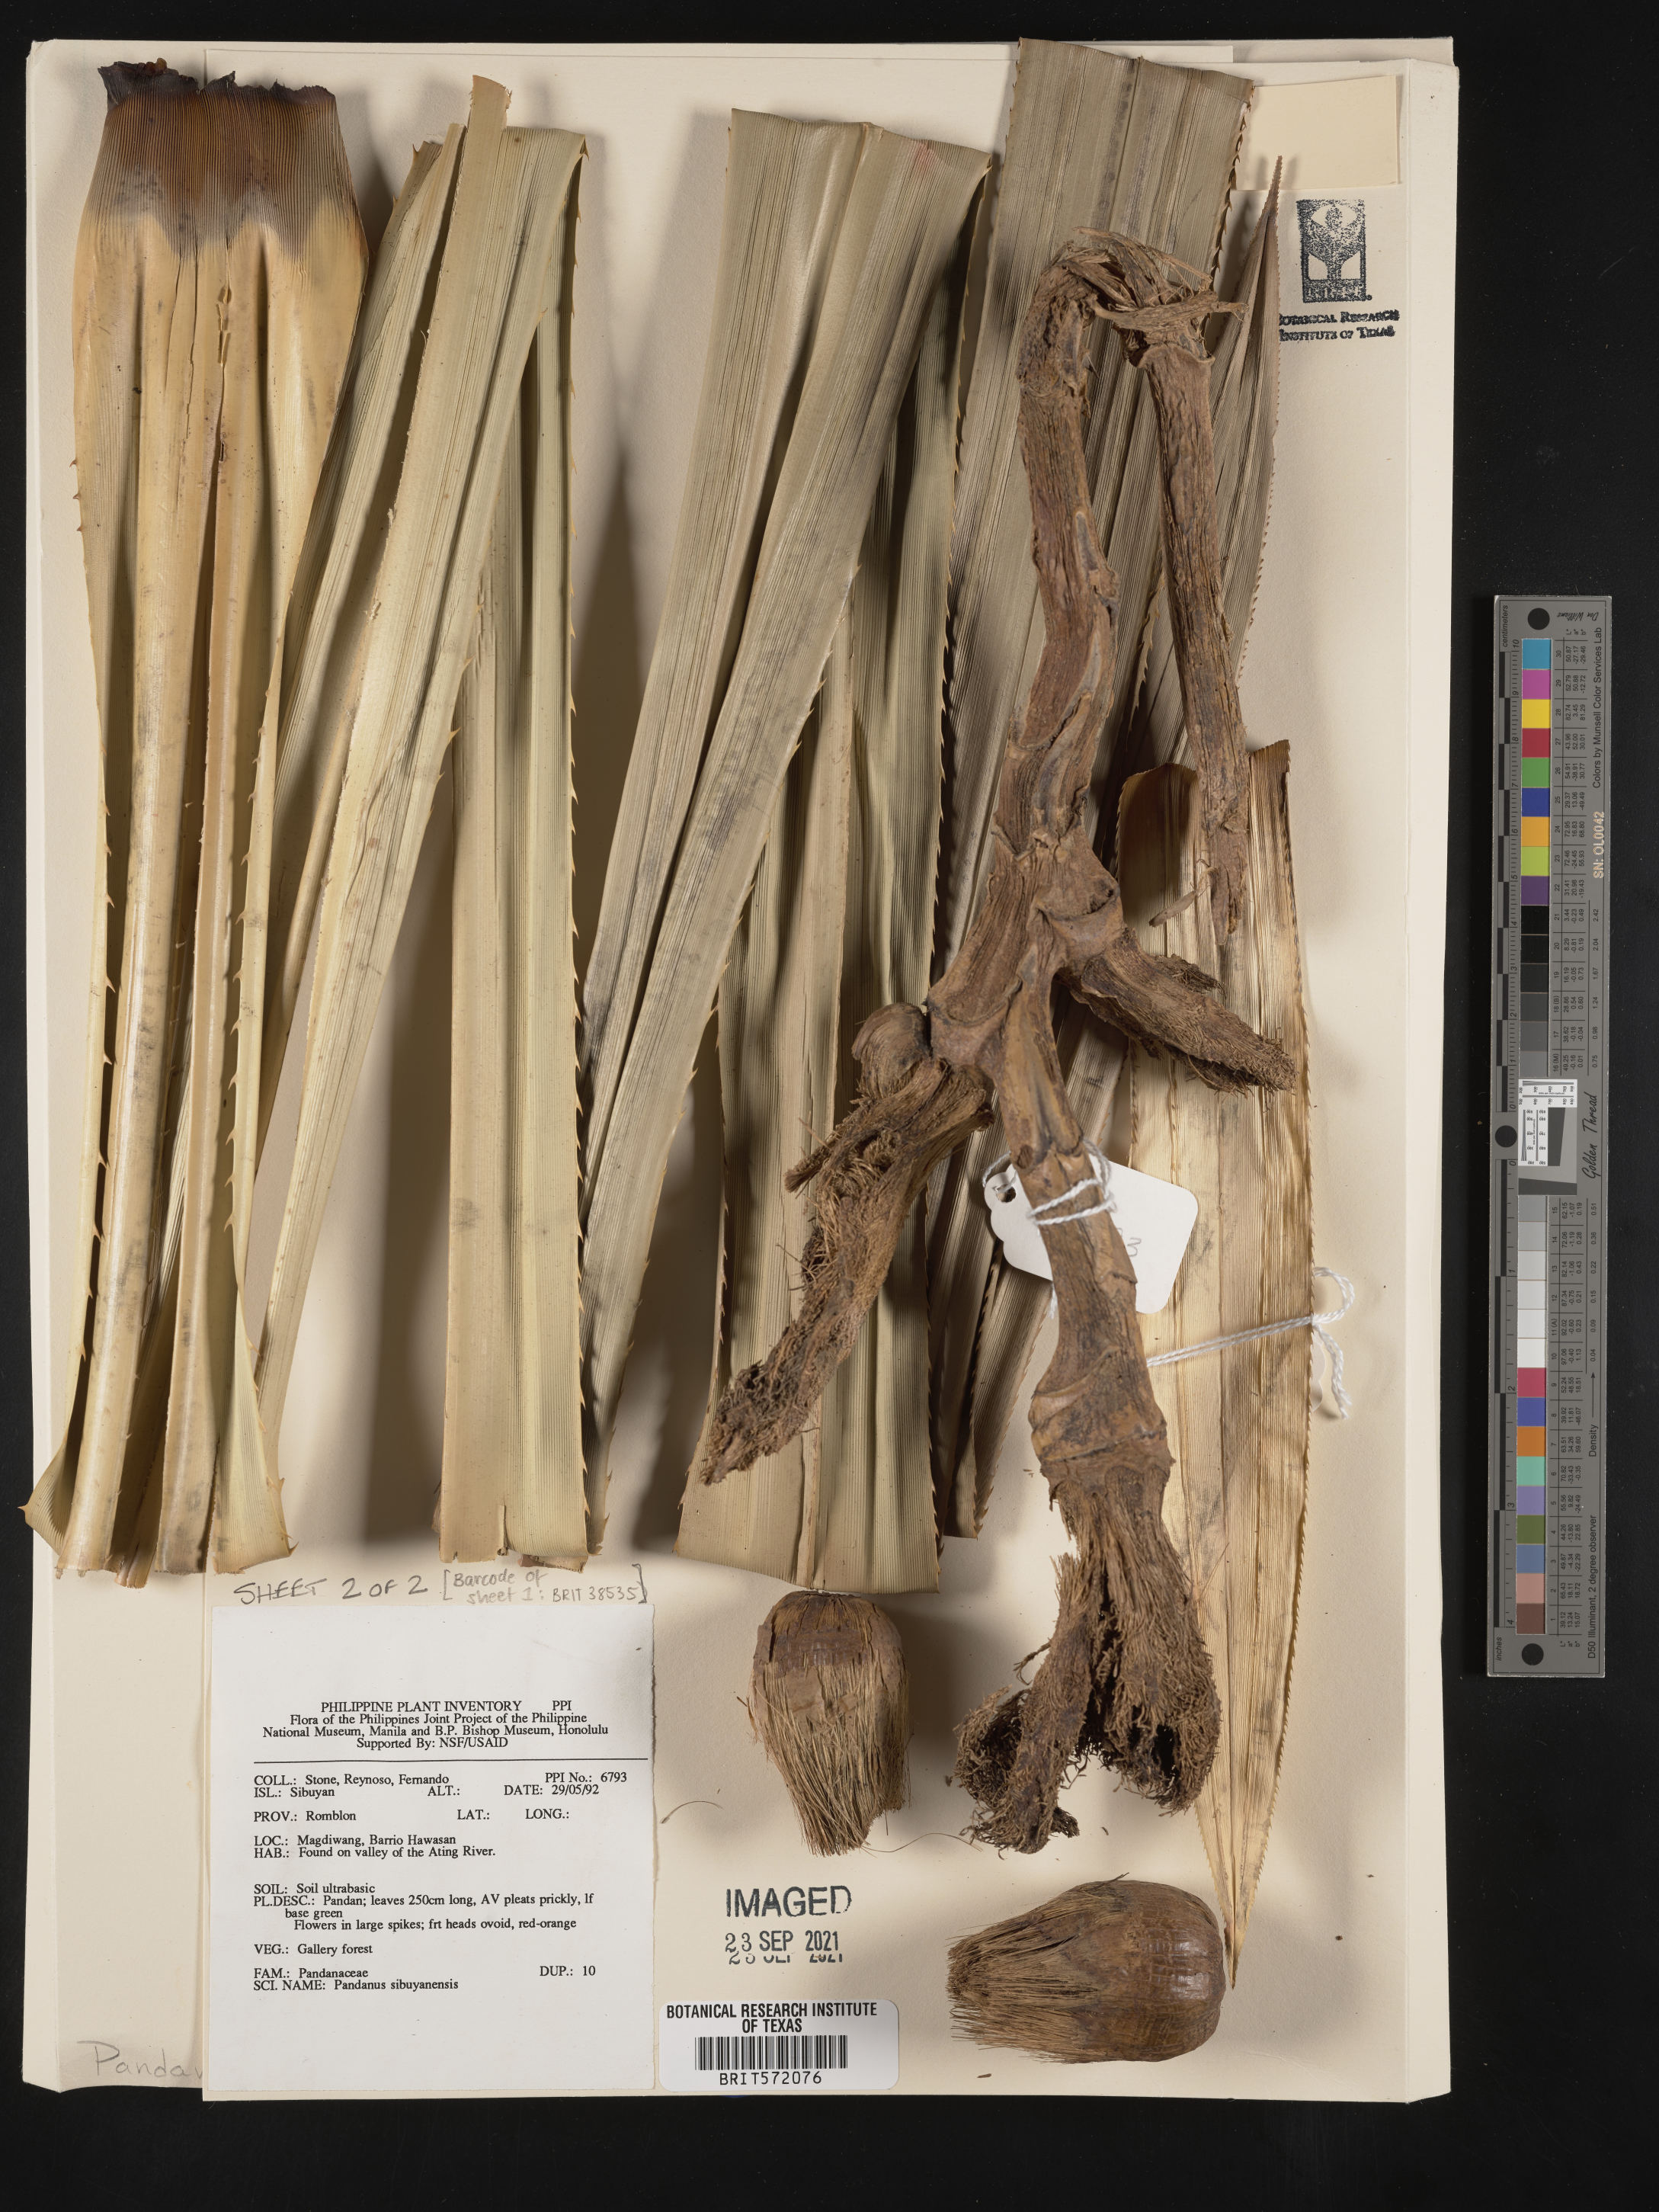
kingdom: Plantae
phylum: Tracheophyta
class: Liliopsida
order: Pandanales
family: Pandanaceae
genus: Pandanus
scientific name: Pandanus sibuyanensis
